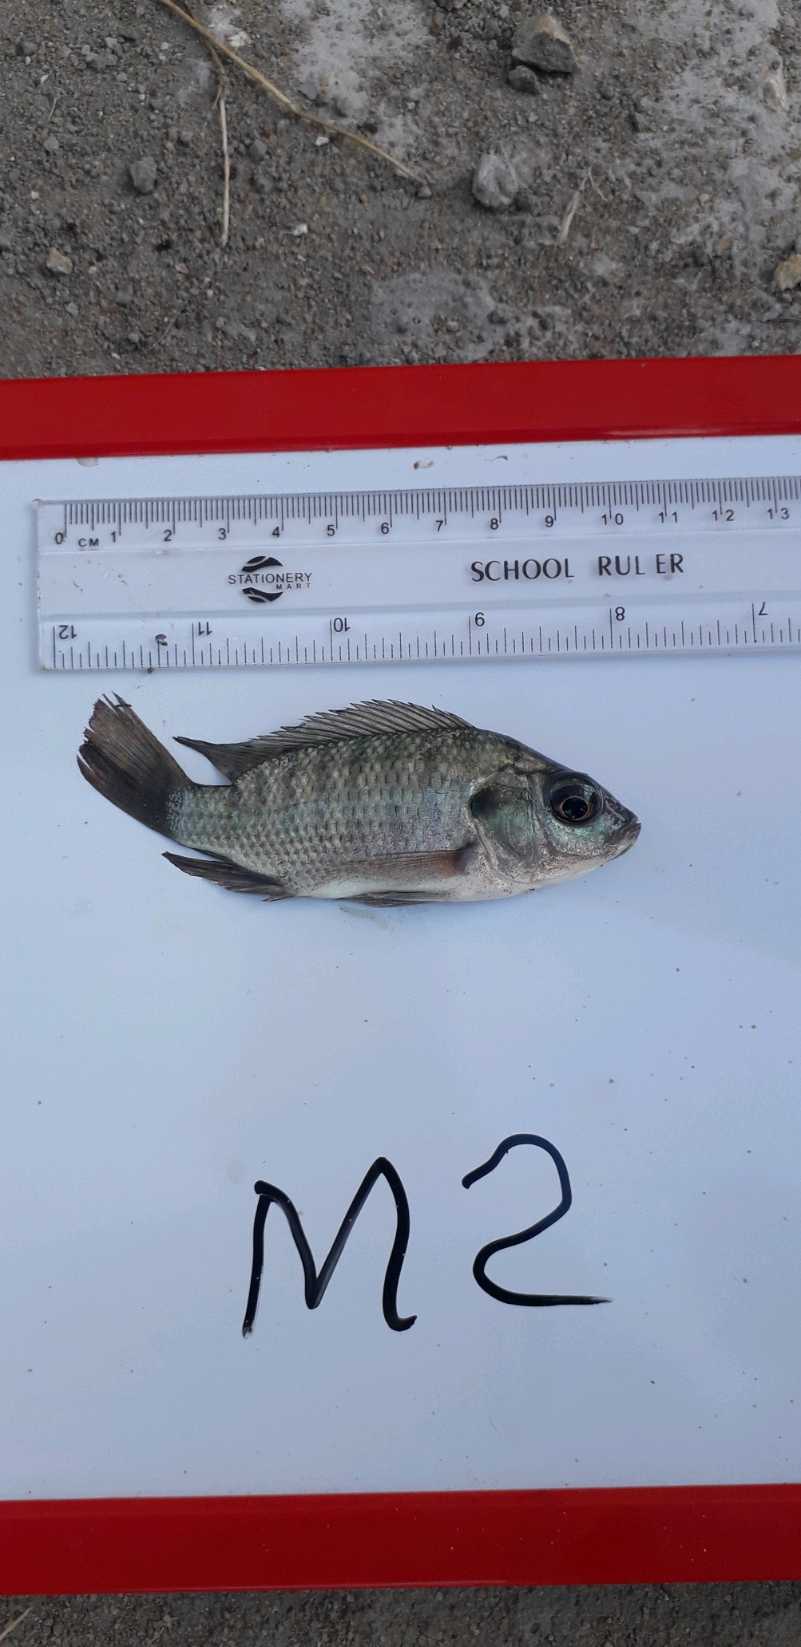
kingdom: Animalia
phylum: Chordata
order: Perciformes
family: Cichlidae
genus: Oreochromis
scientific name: Oreochromis niloticus
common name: Nile tilapia
